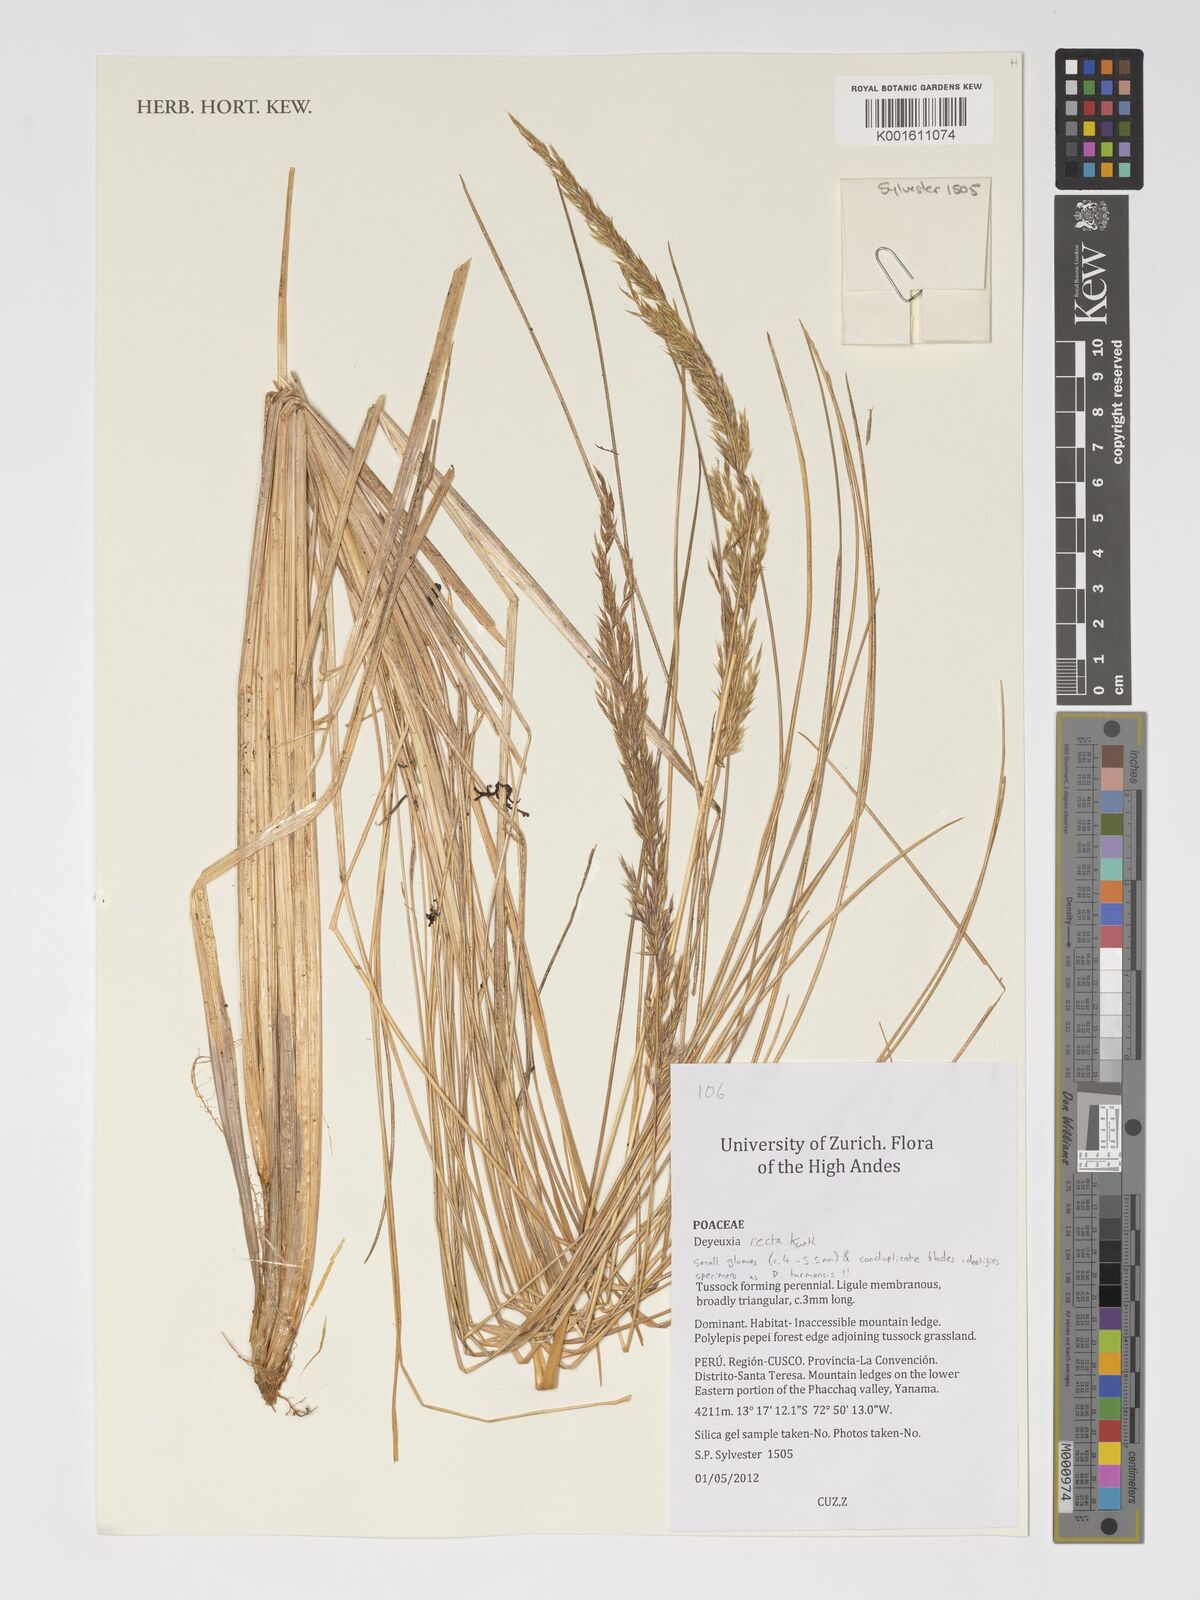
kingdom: Plantae
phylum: Tracheophyta
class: Liliopsida
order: Poales
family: Poaceae
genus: Cinnagrostis
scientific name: Cinnagrostis tarmensis
